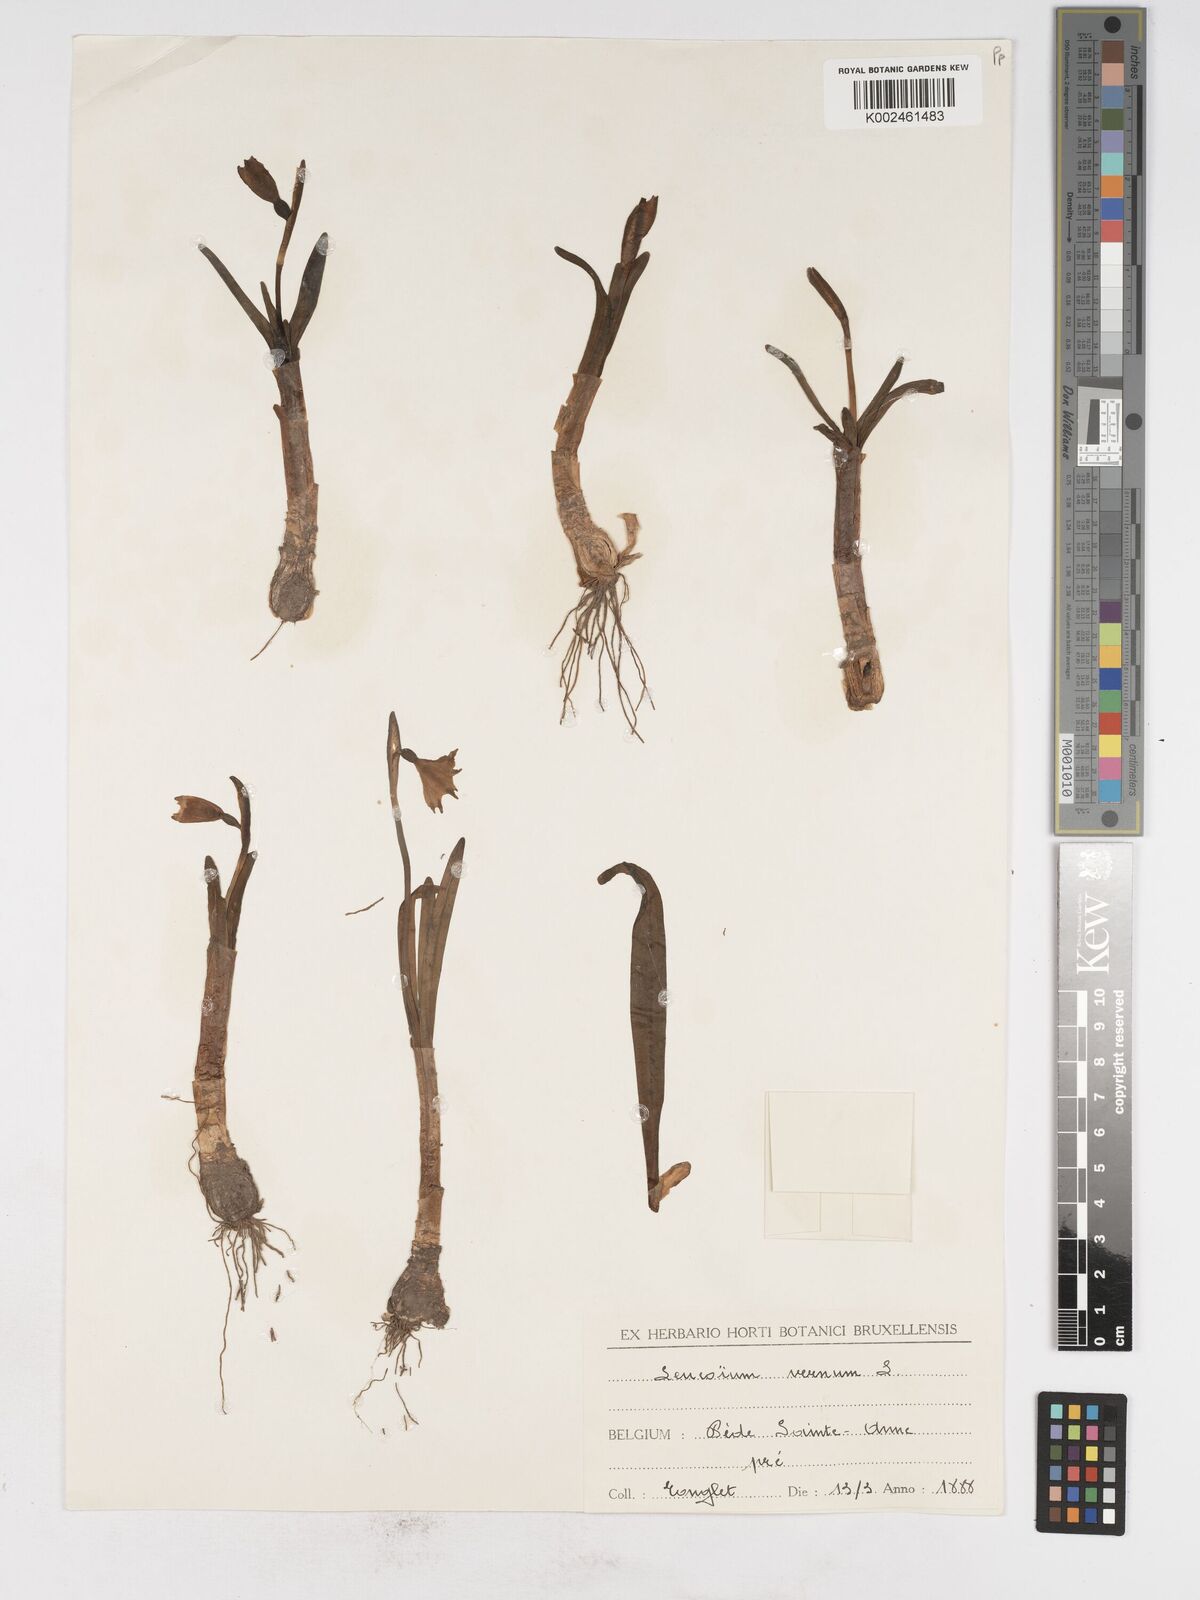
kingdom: Plantae
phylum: Tracheophyta
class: Liliopsida
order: Asparagales
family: Amaryllidaceae
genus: Leucojum
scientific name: Leucojum vernum
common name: Spring snowflake
